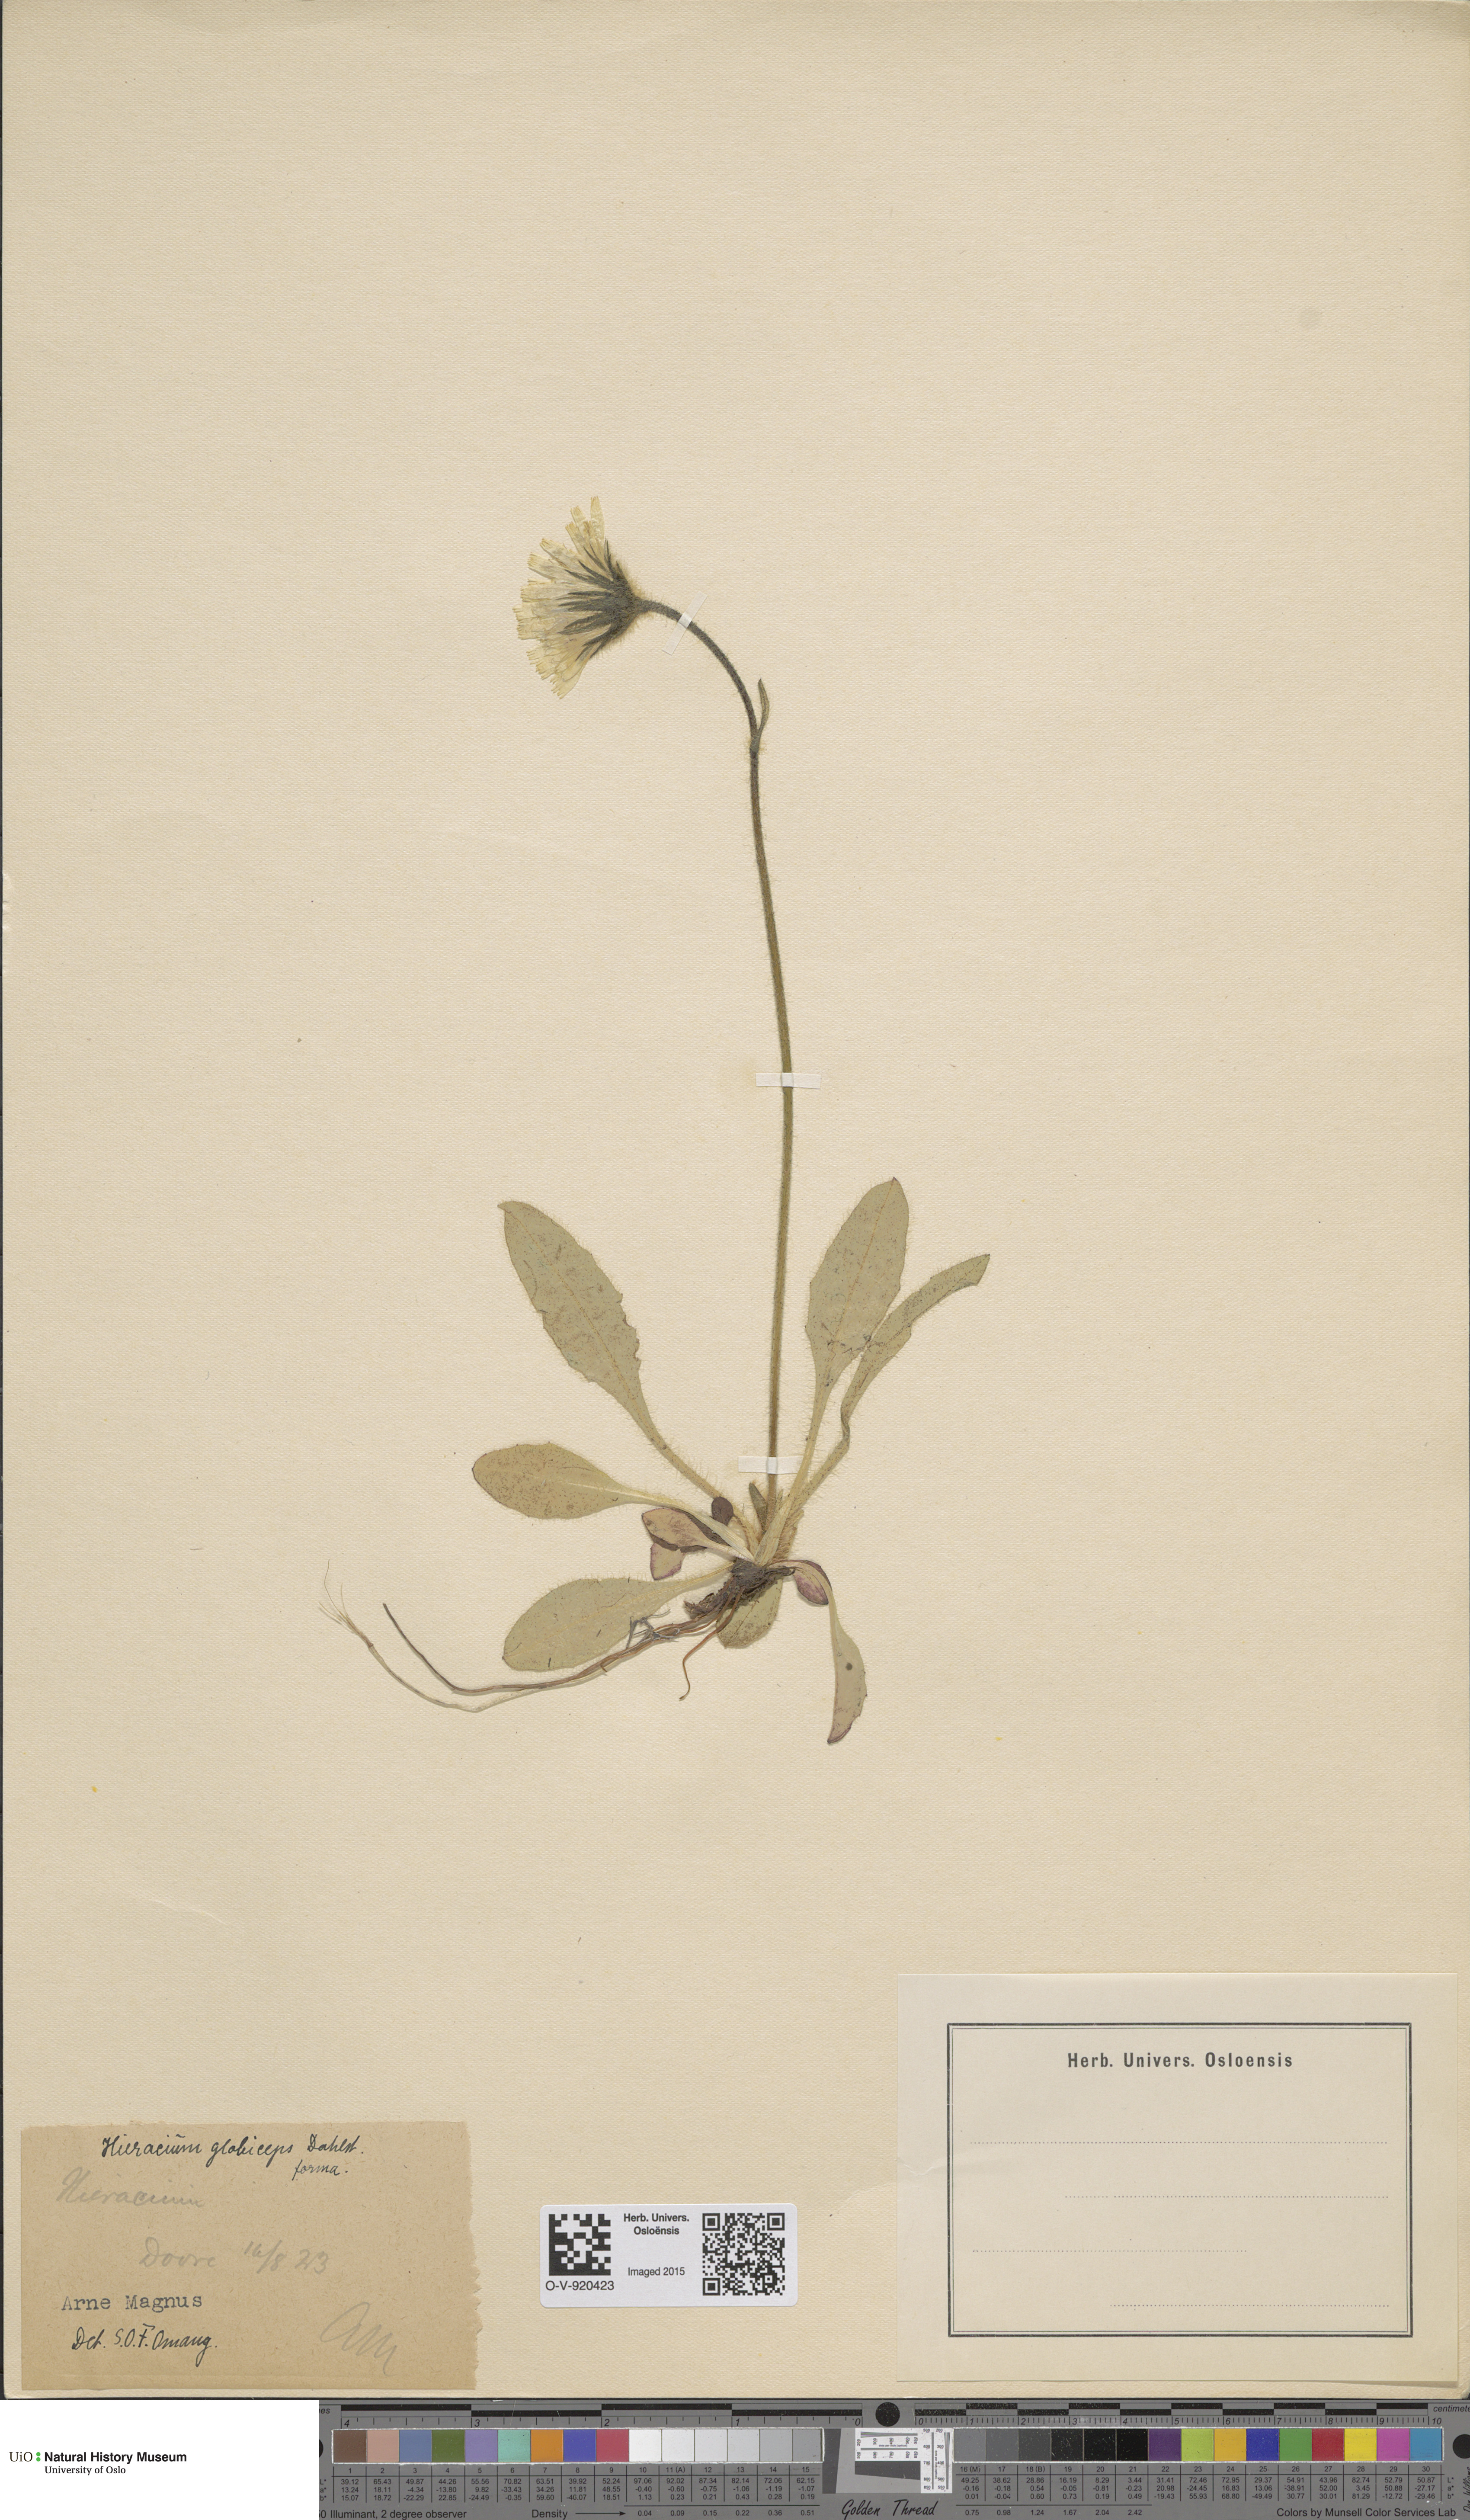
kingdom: Plantae
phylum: Tracheophyta
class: Magnoliopsida
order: Asterales
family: Asteraceae
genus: Hieracium
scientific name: Hieracium alpinum
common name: Alpine hawkweed
